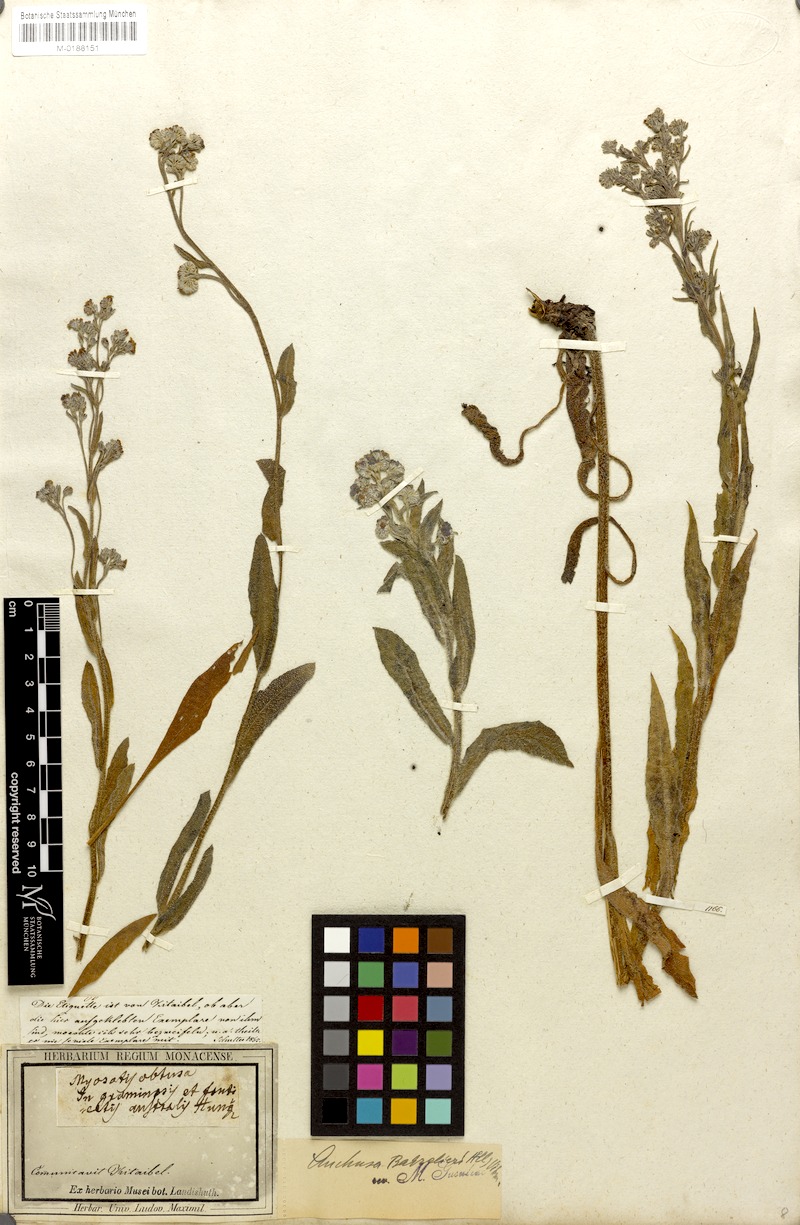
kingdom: Plantae
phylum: Tracheophyta
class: Magnoliopsida
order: Boraginales
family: Boraginaceae
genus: Cynoglottis
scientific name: Cynoglottis barrelieri
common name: False alkanet
